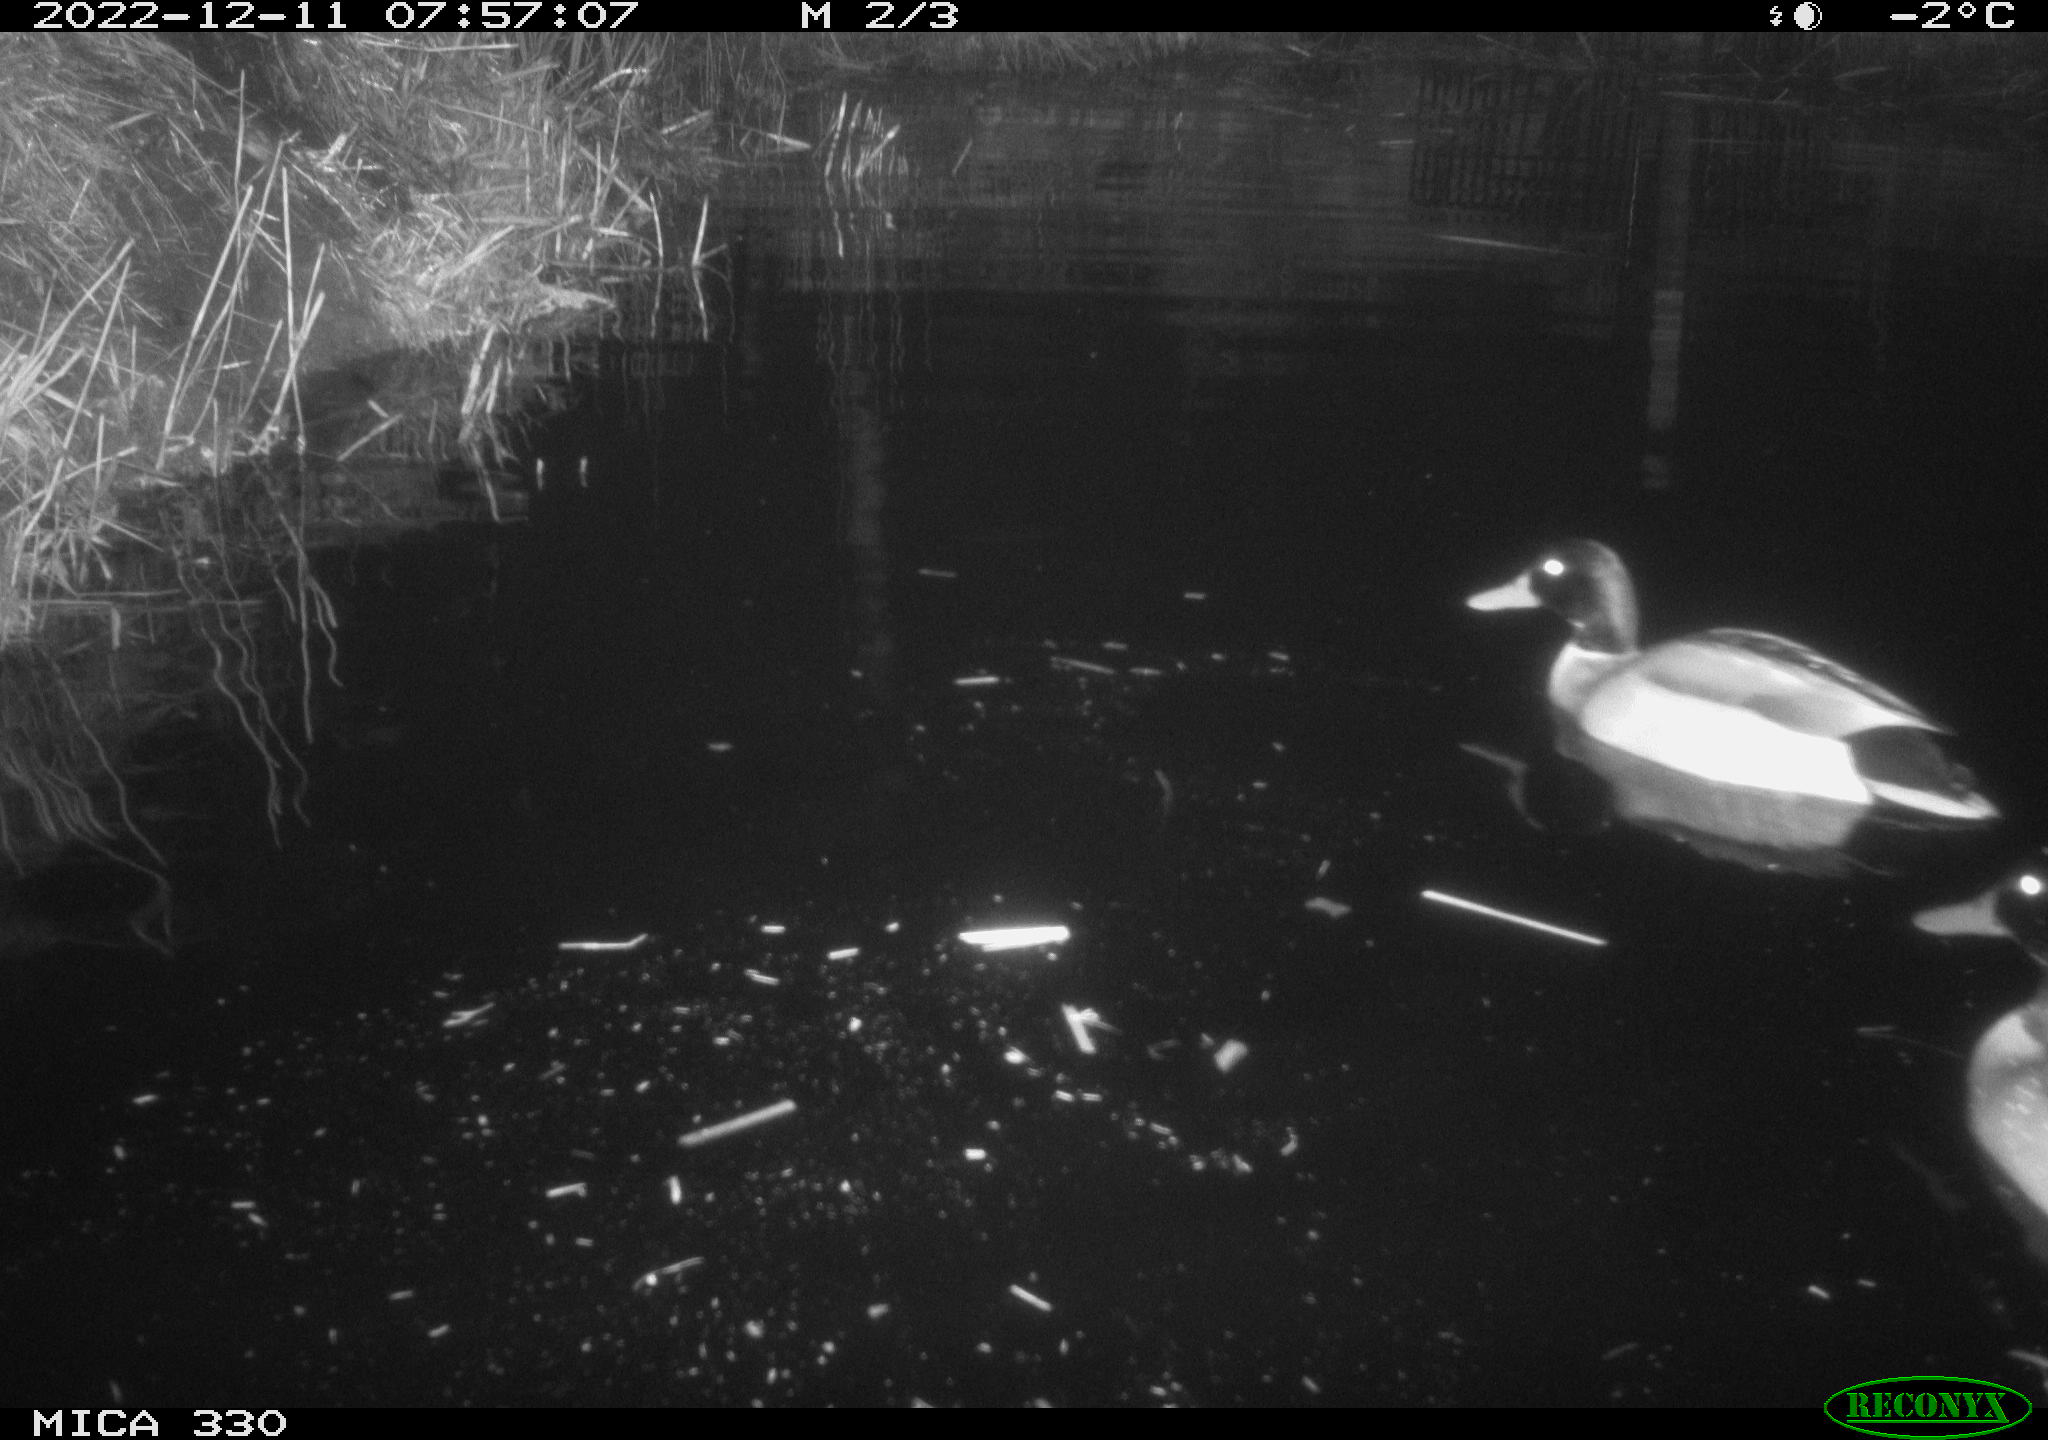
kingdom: Animalia
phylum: Chordata
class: Aves
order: Gruiformes
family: Rallidae
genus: Gallinula
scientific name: Gallinula chloropus
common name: Common moorhen
